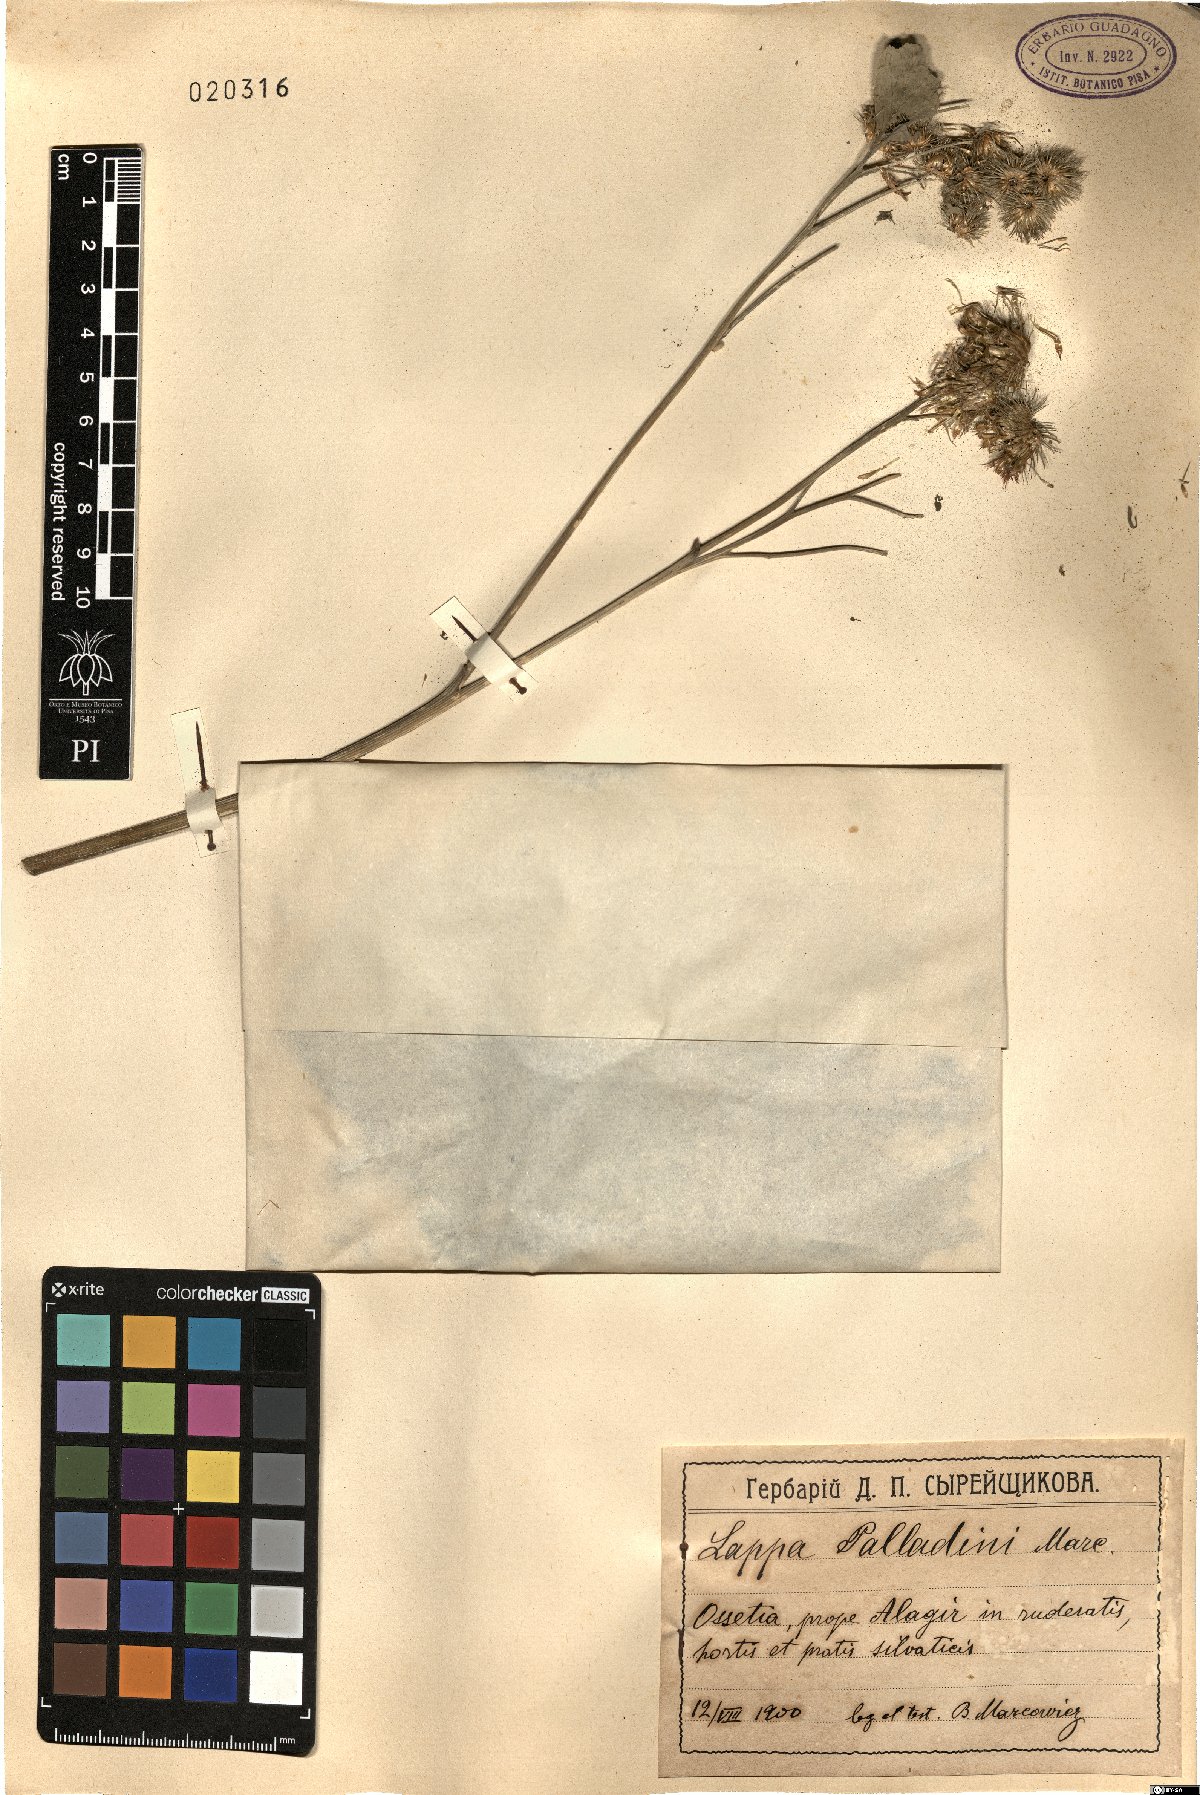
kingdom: Plantae
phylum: Tracheophyta
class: Magnoliopsida
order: Asterales
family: Asteraceae
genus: Arctium
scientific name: Arctium palladini
